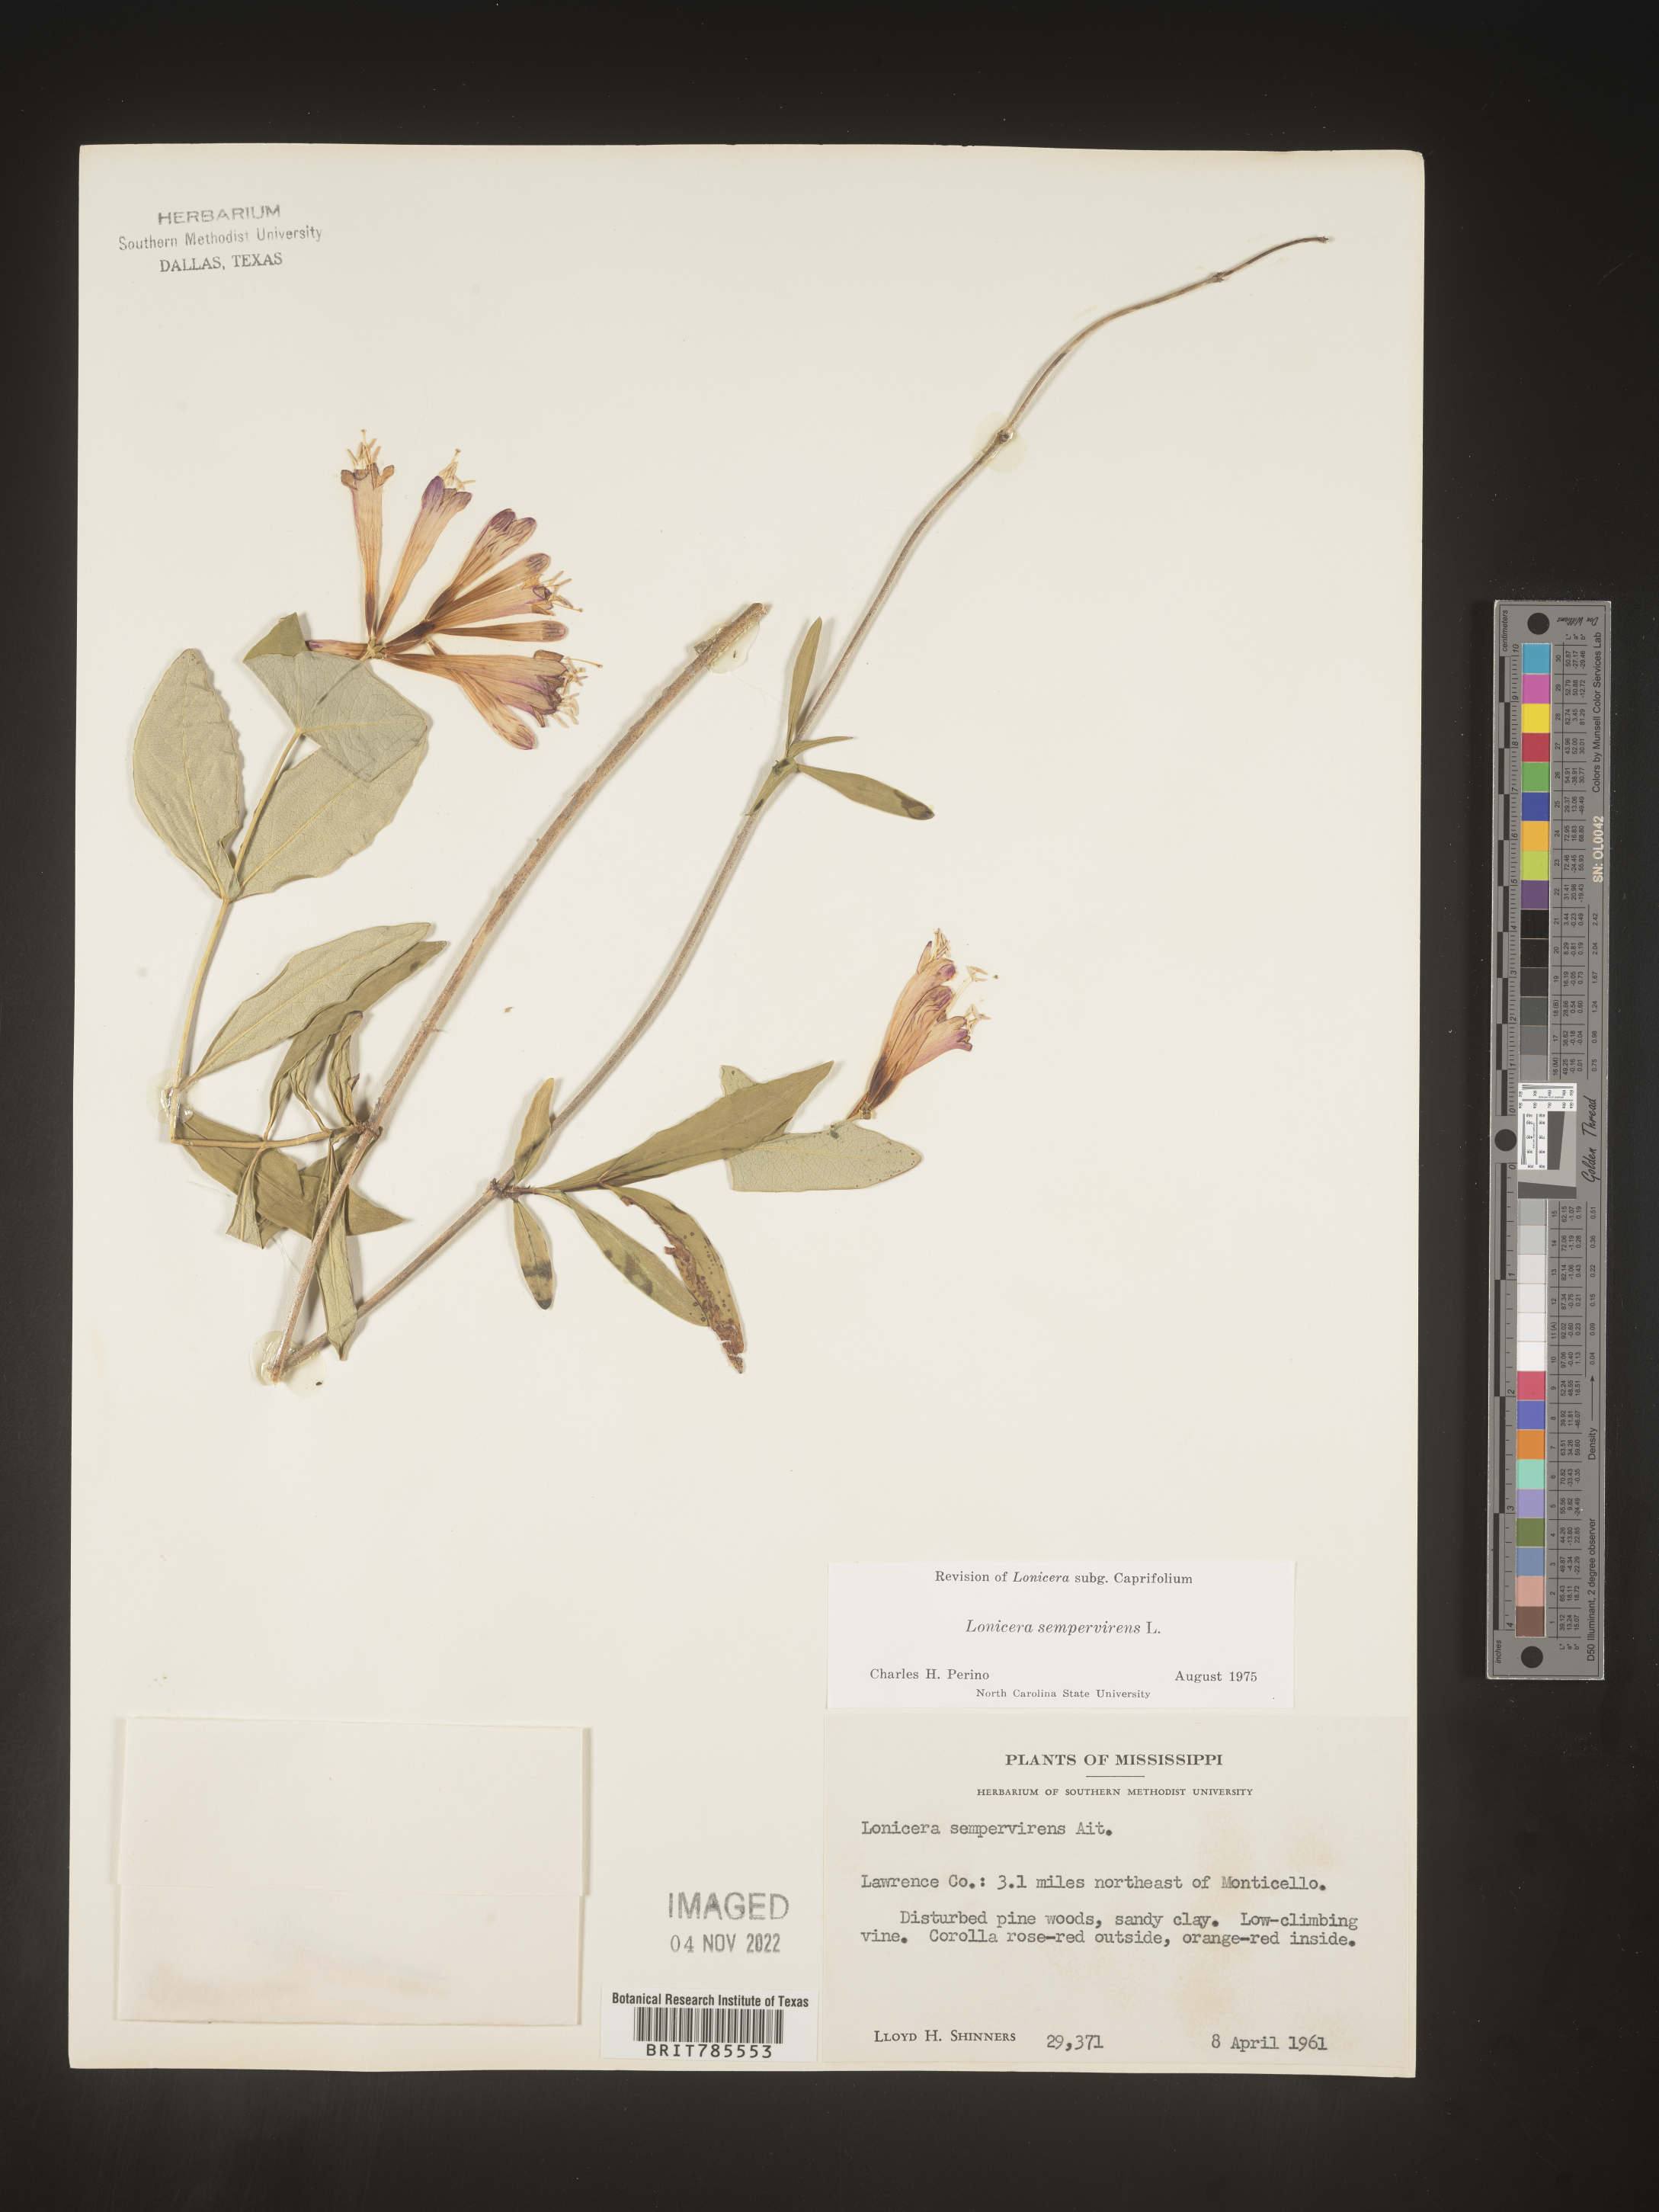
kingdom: Plantae
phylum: Tracheophyta
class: Magnoliopsida
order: Dipsacales
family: Caprifoliaceae
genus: Lonicera
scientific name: Lonicera sempervirens
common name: Coral honeysuckle
